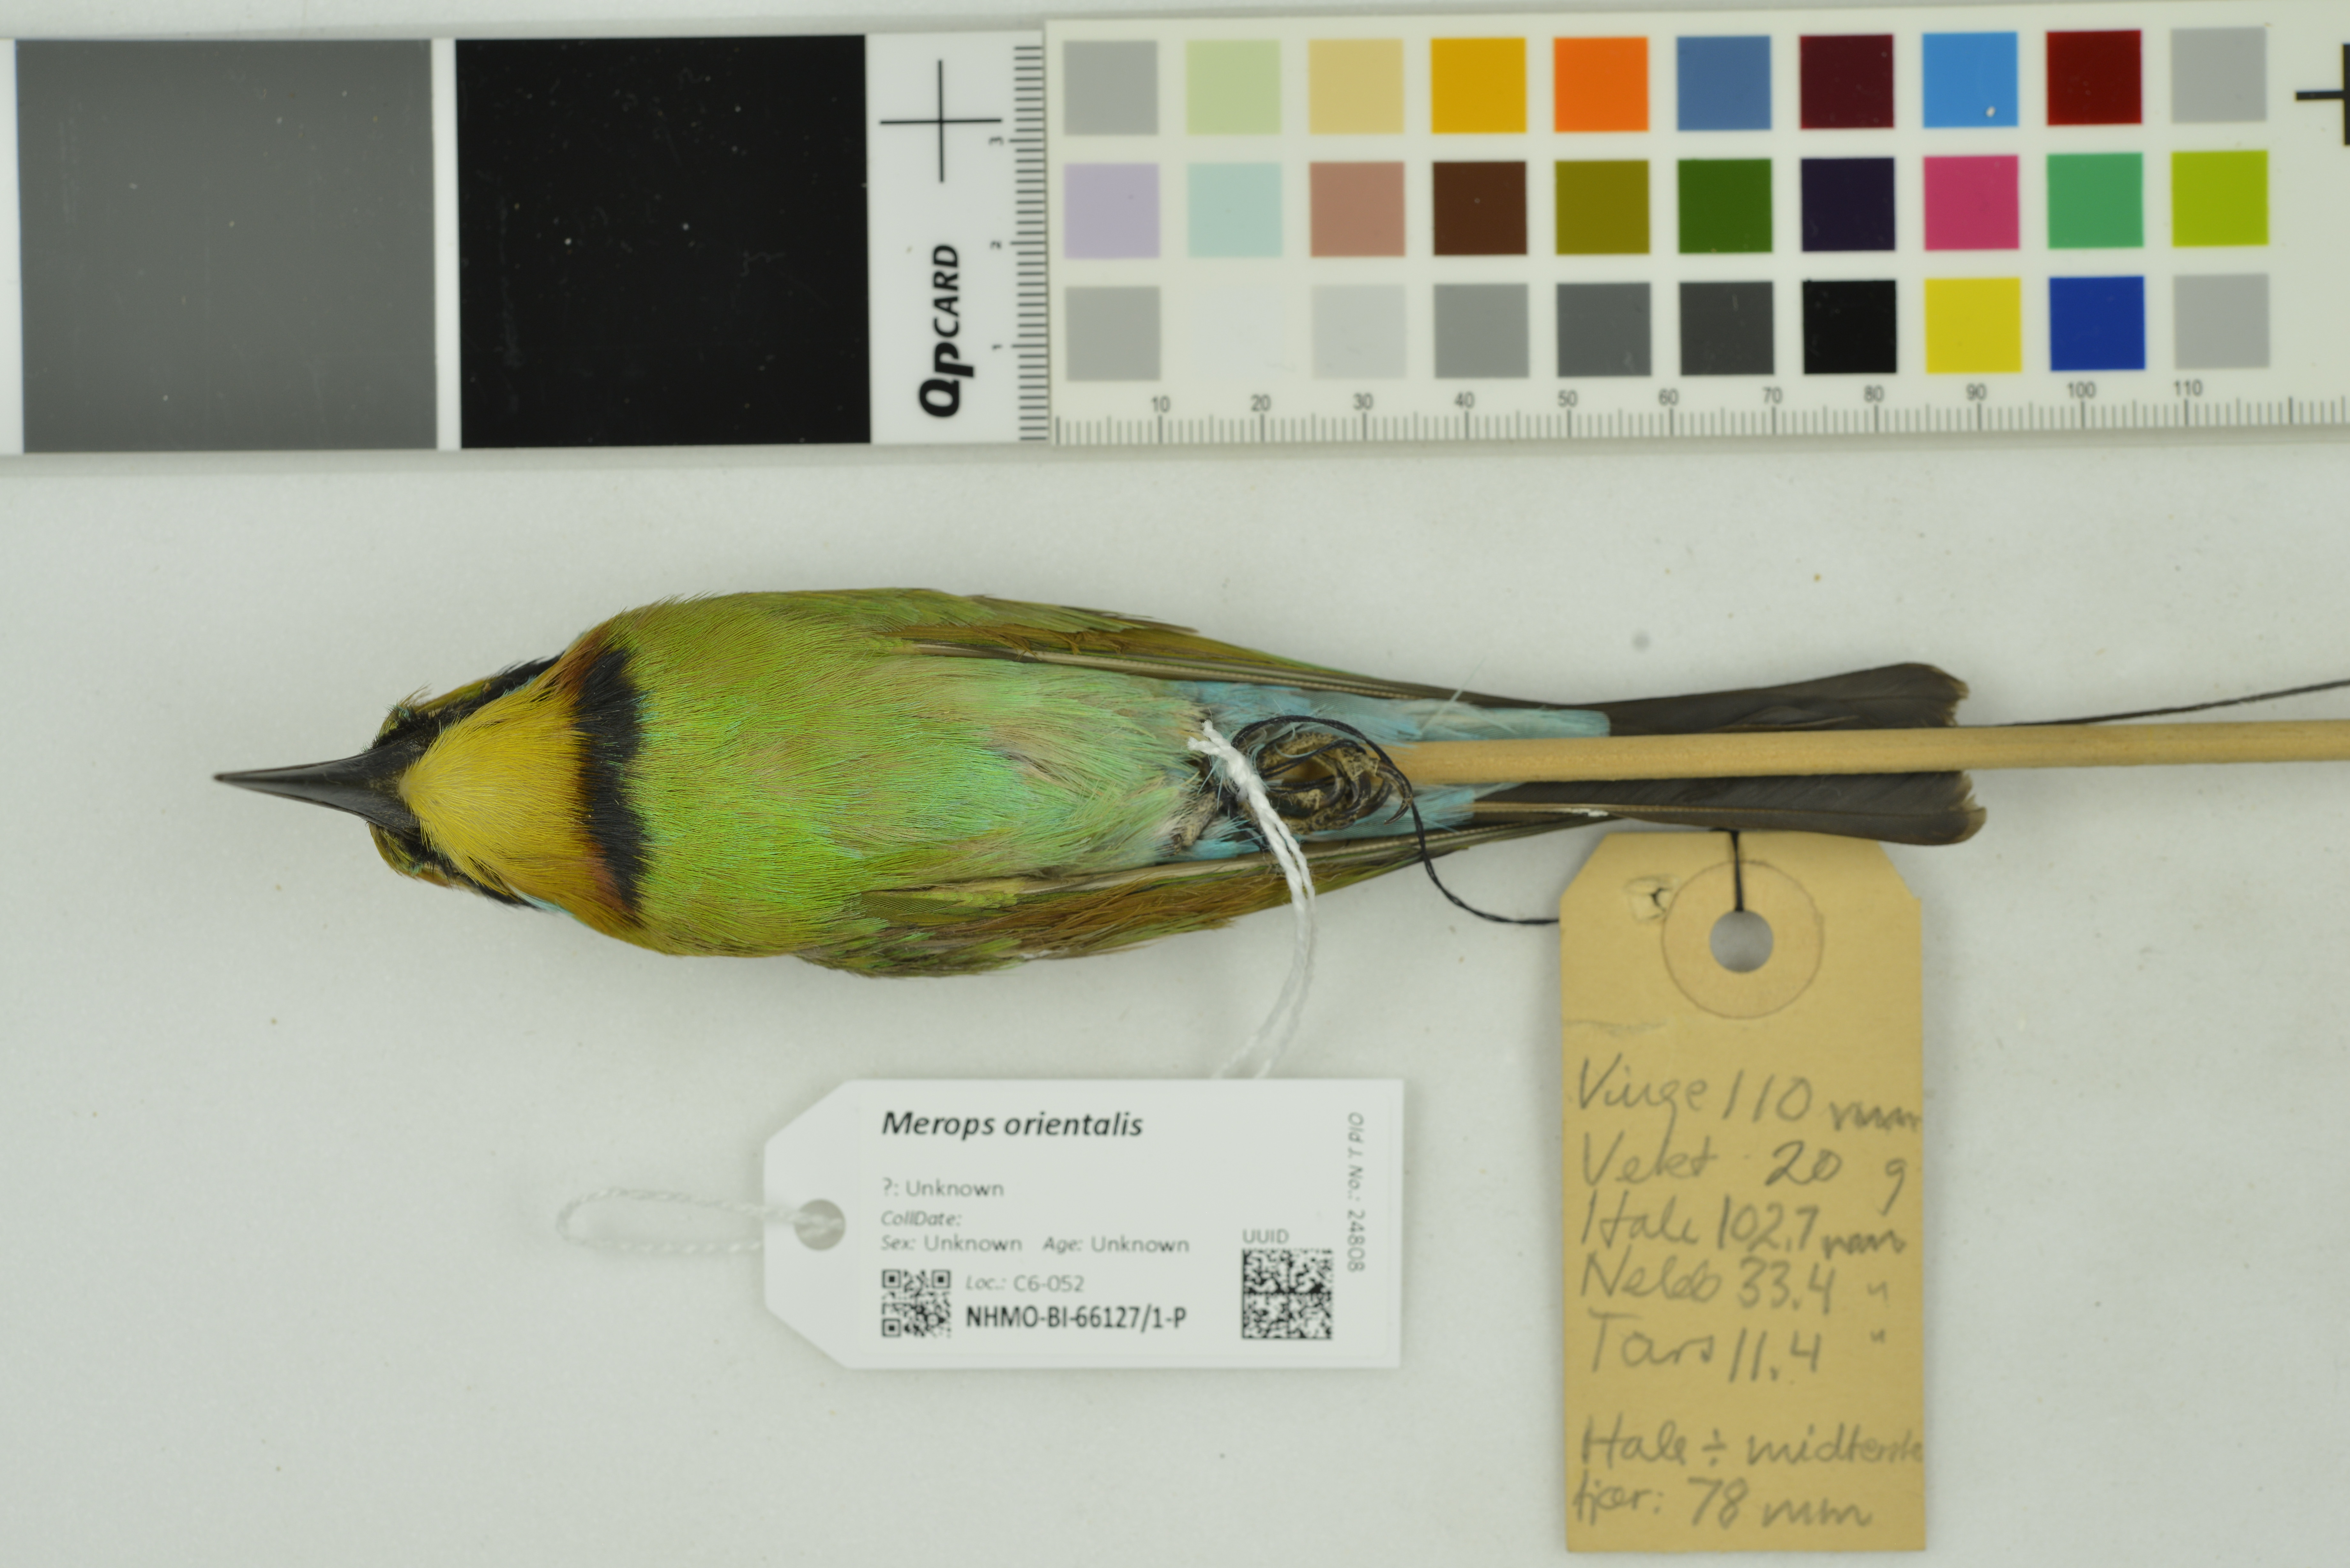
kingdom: Animalia
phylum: Chordata
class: Aves
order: Coraciiformes
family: Meropidae
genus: Merops
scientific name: Merops orientalis
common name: Green bee-eater
